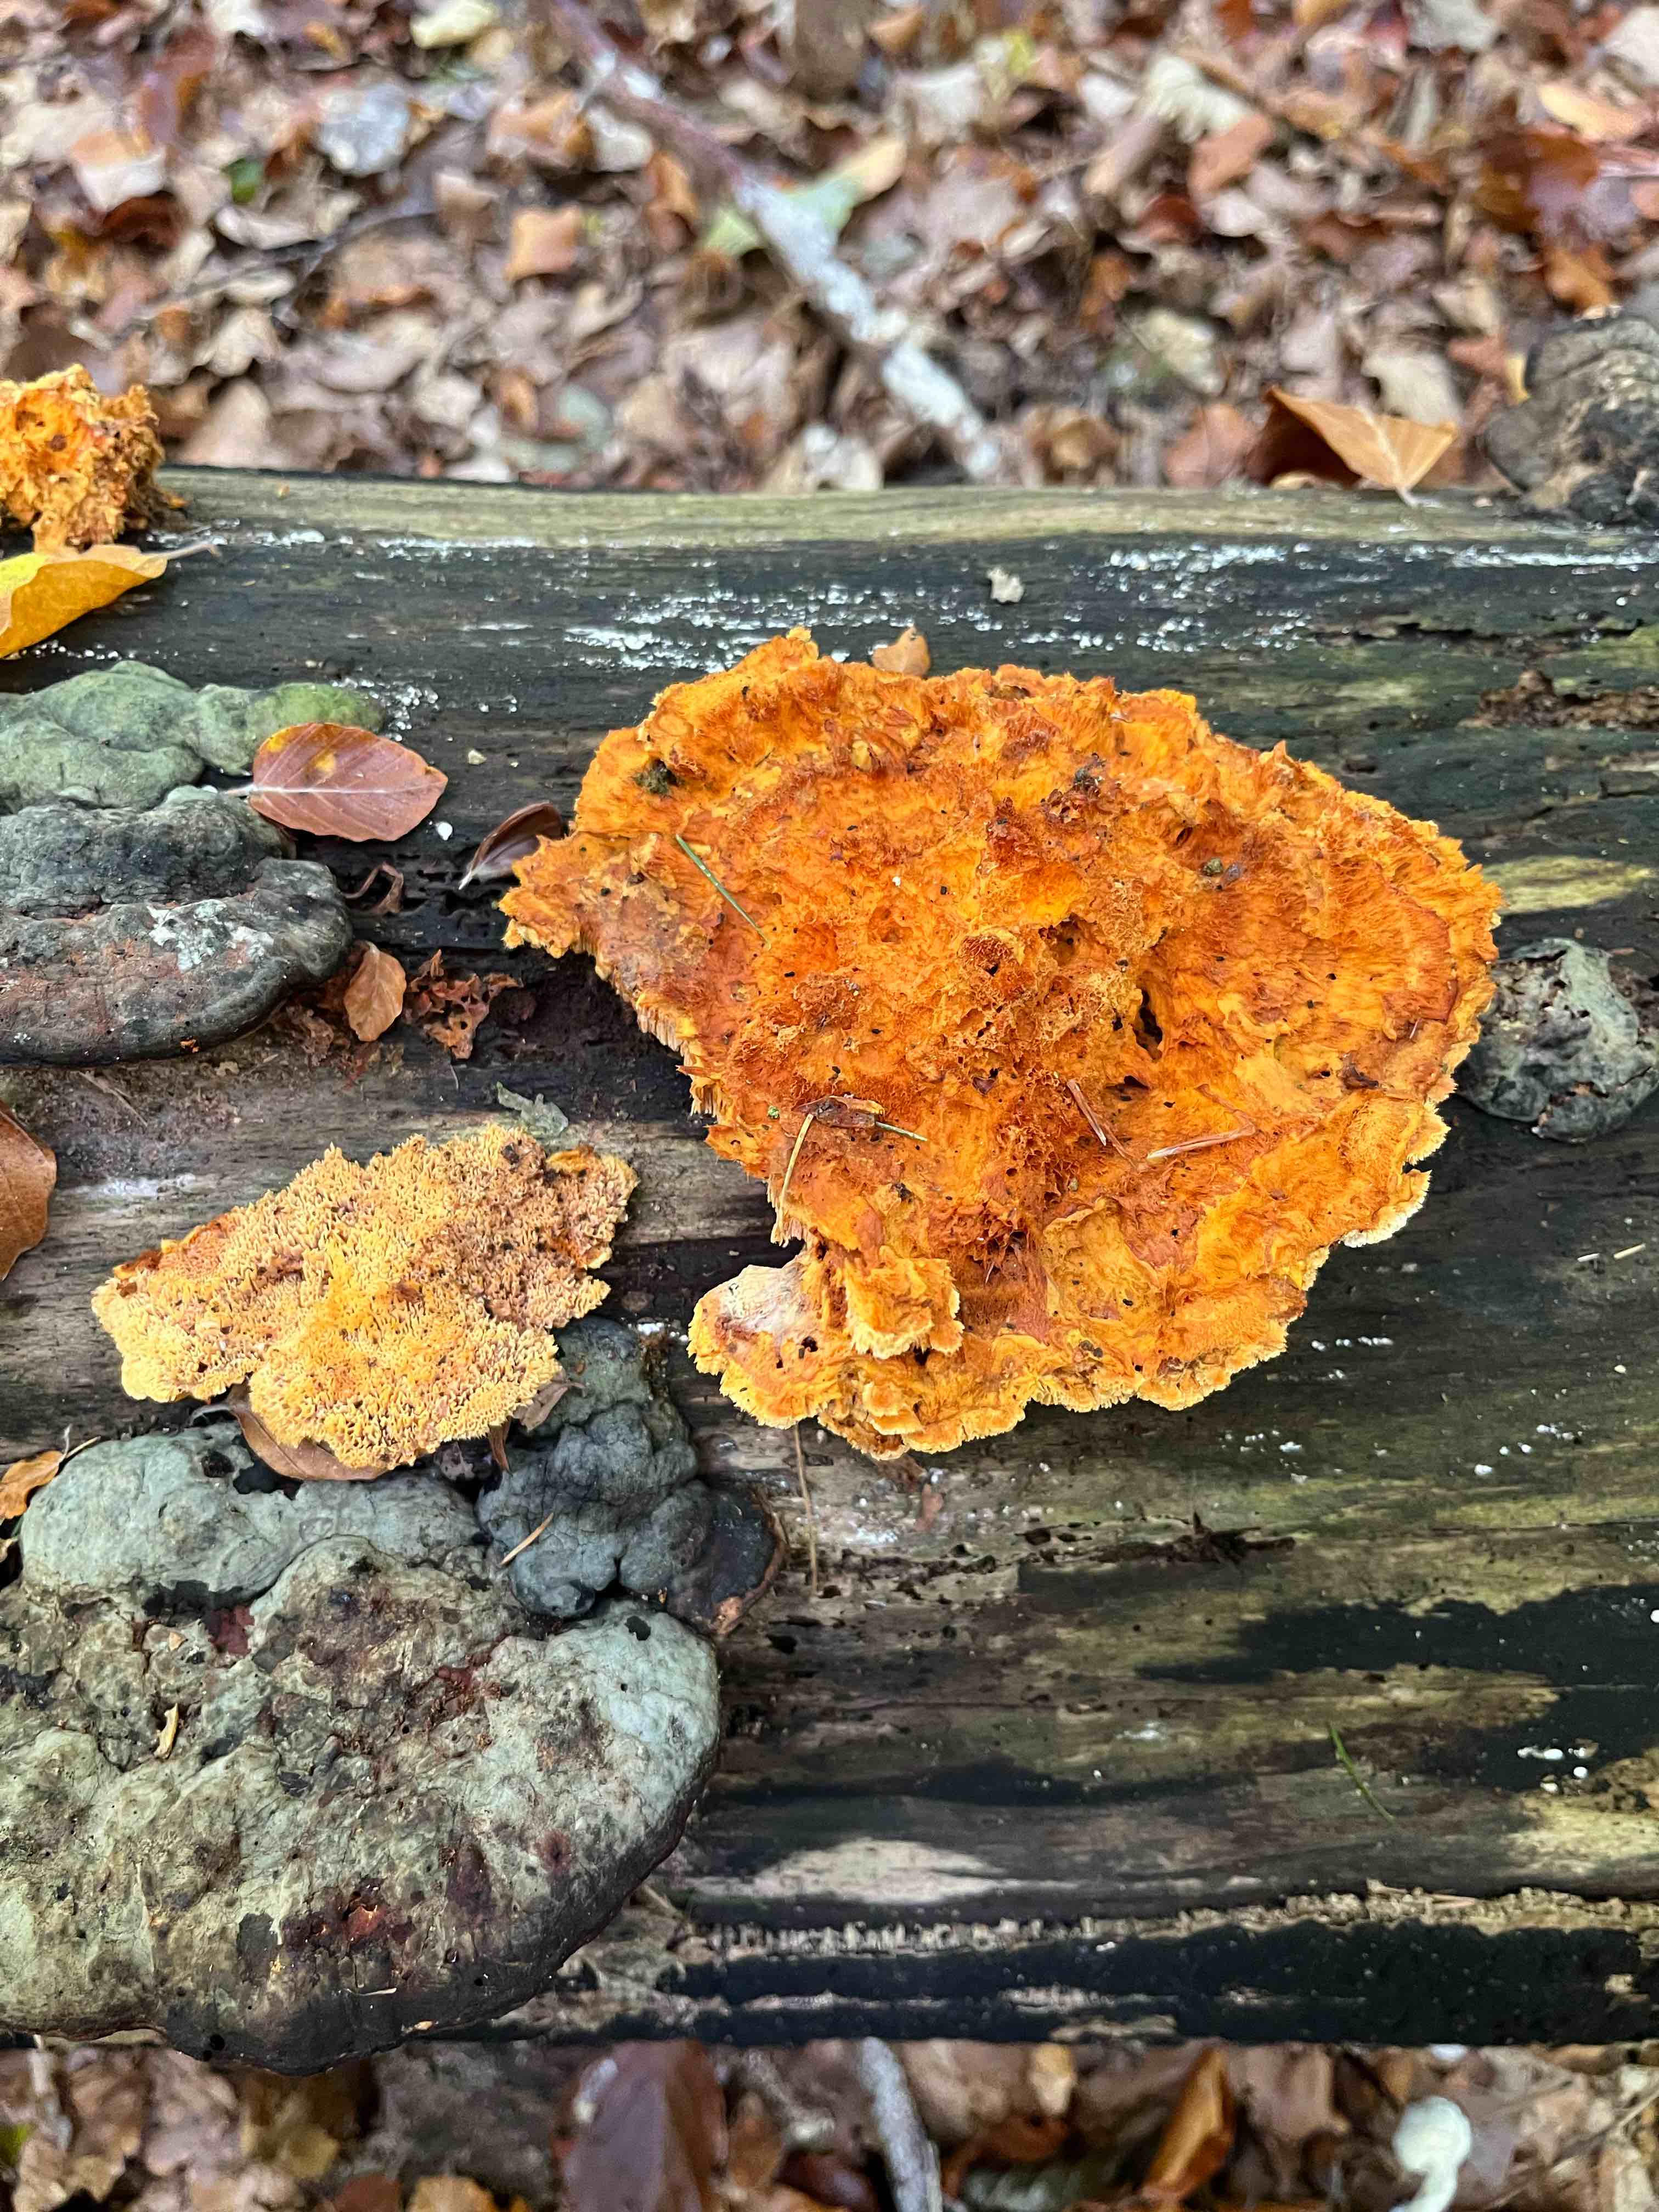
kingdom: Fungi
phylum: Basidiomycota
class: Agaricomycetes
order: Polyporales
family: Pycnoporellaceae
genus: Pycnoporellus
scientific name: Pycnoporellus fulgens
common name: flammeporesvamp
